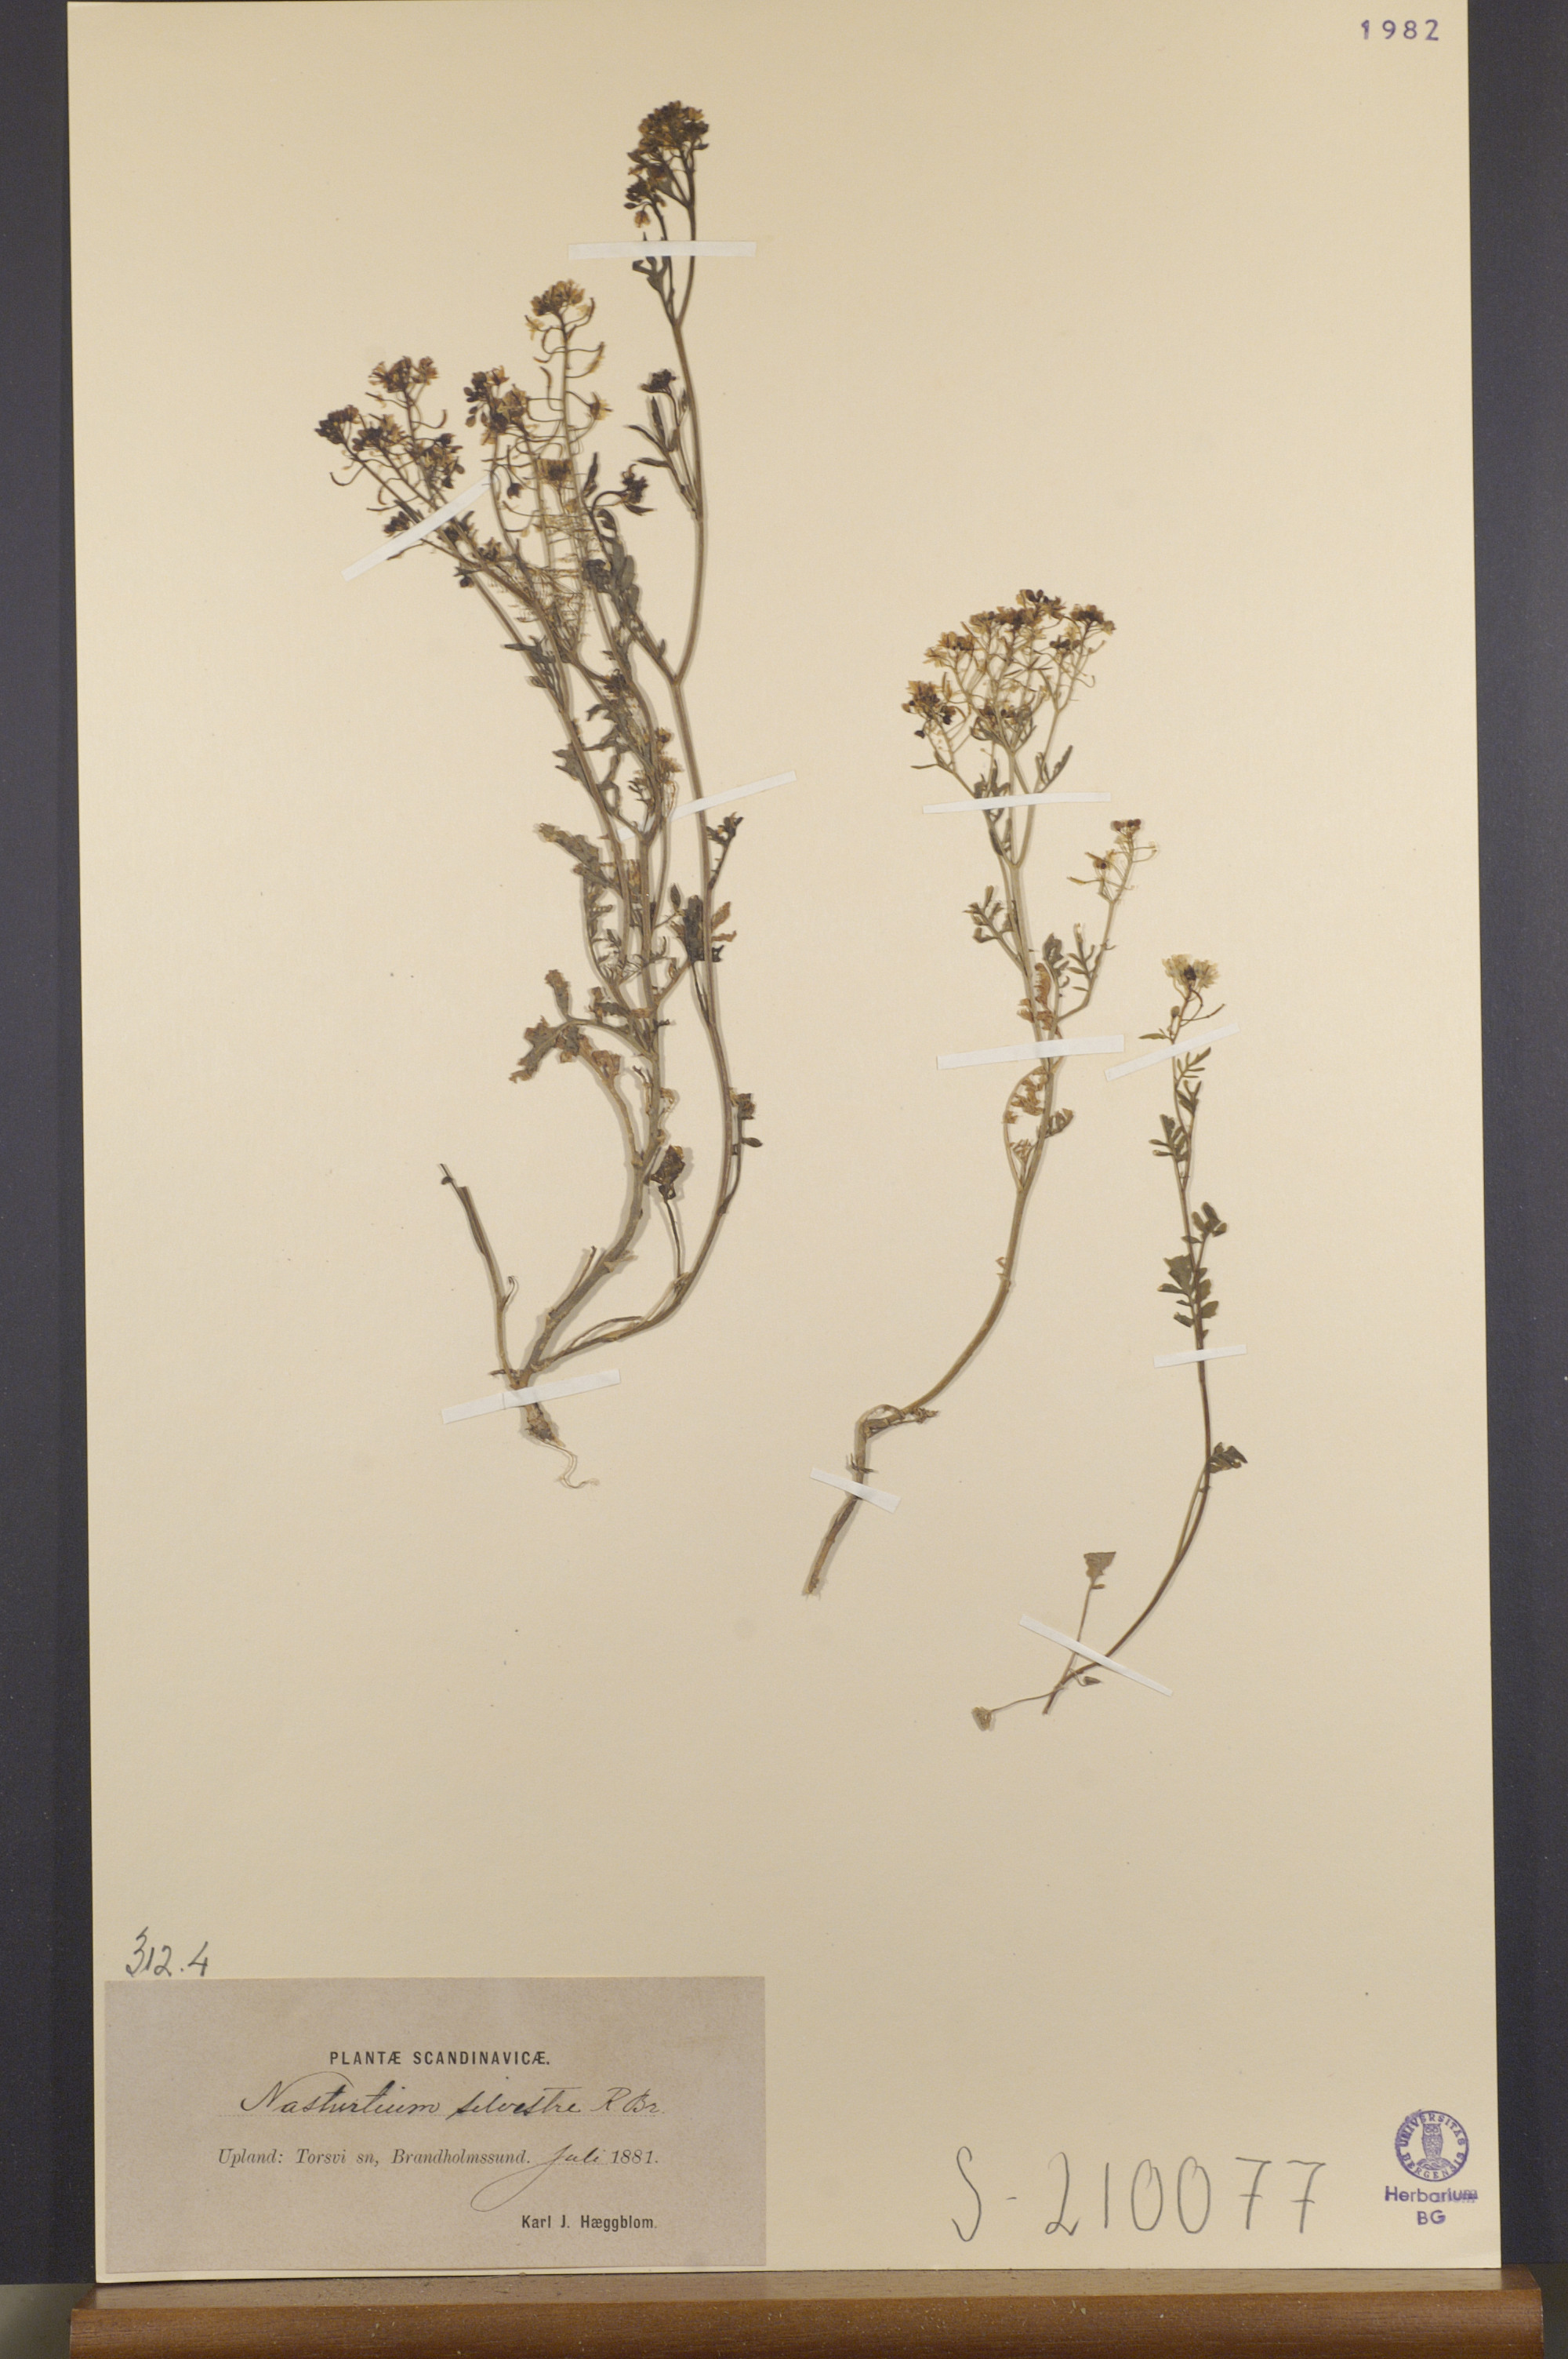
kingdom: Plantae
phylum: Tracheophyta
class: Magnoliopsida
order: Brassicales
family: Brassicaceae
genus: Rorippa
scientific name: Rorippa sylvestris
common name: Creeping yellowcress
